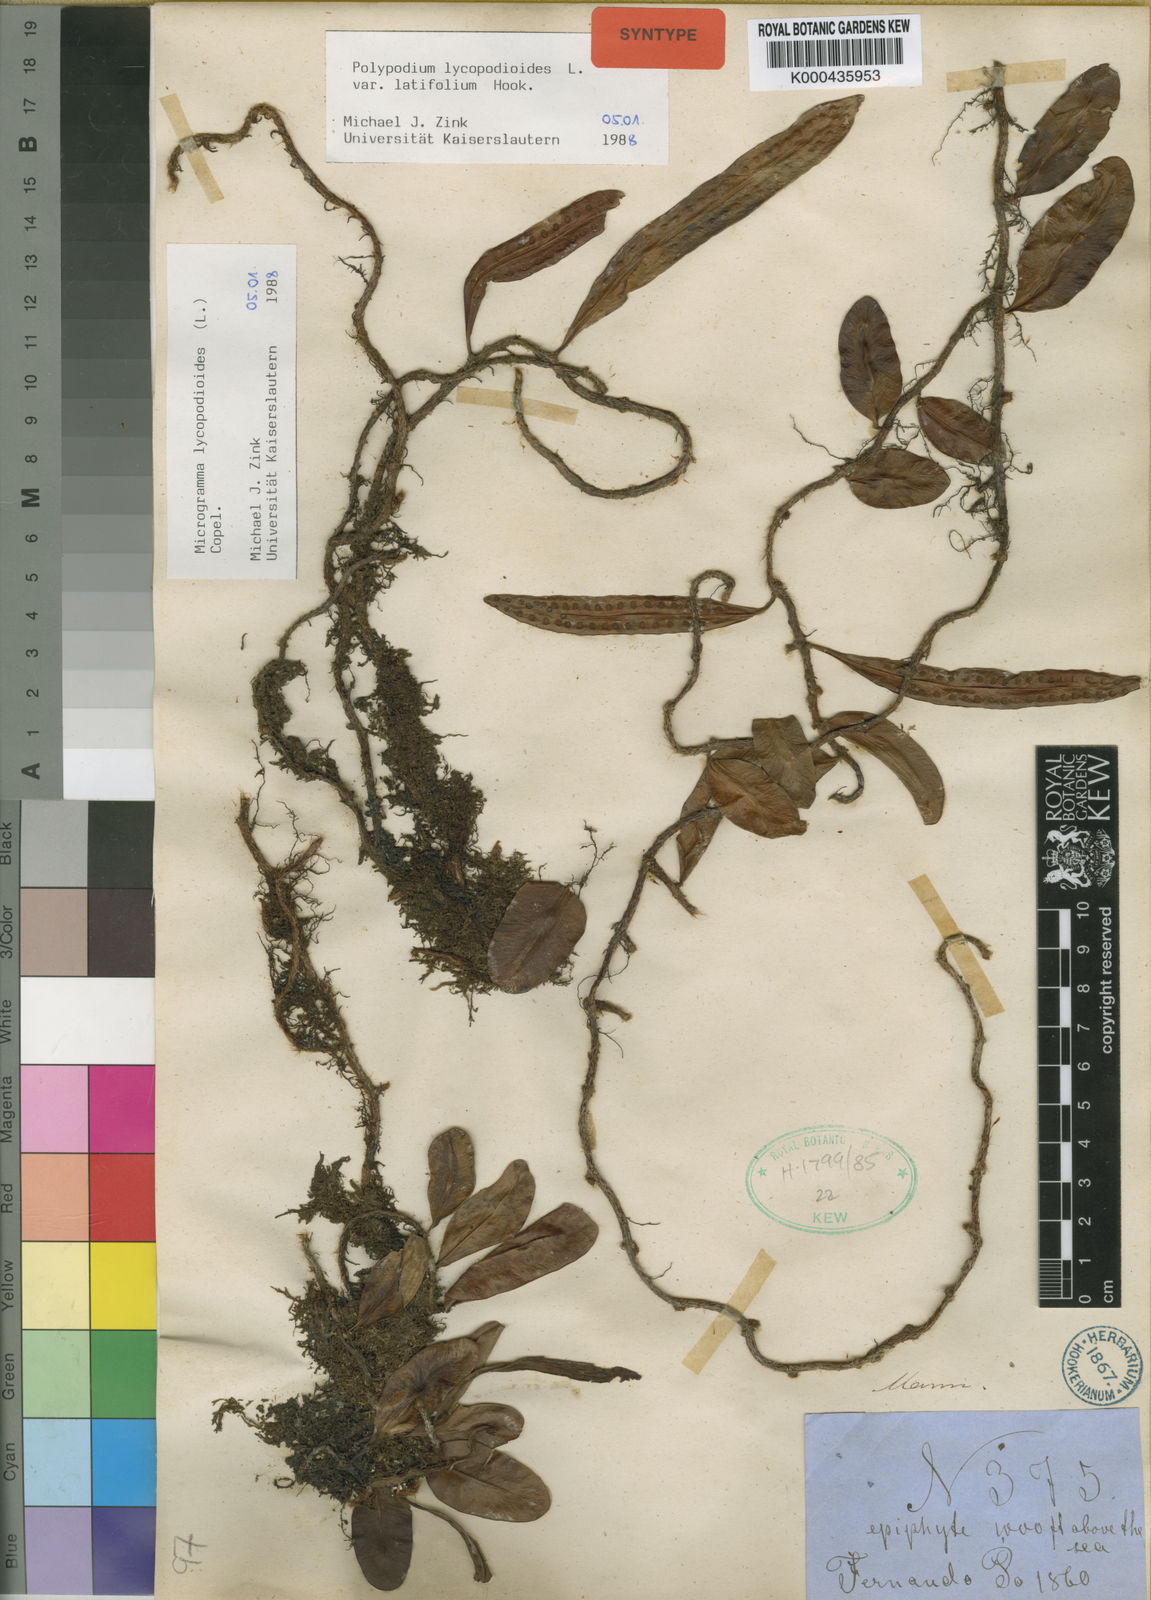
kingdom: Plantae
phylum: Tracheophyta
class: Polypodiopsida
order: Polypodiales
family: Polypodiaceae
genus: Microgramma
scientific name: Microgramma lycopodioides
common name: Bastard catclaw
